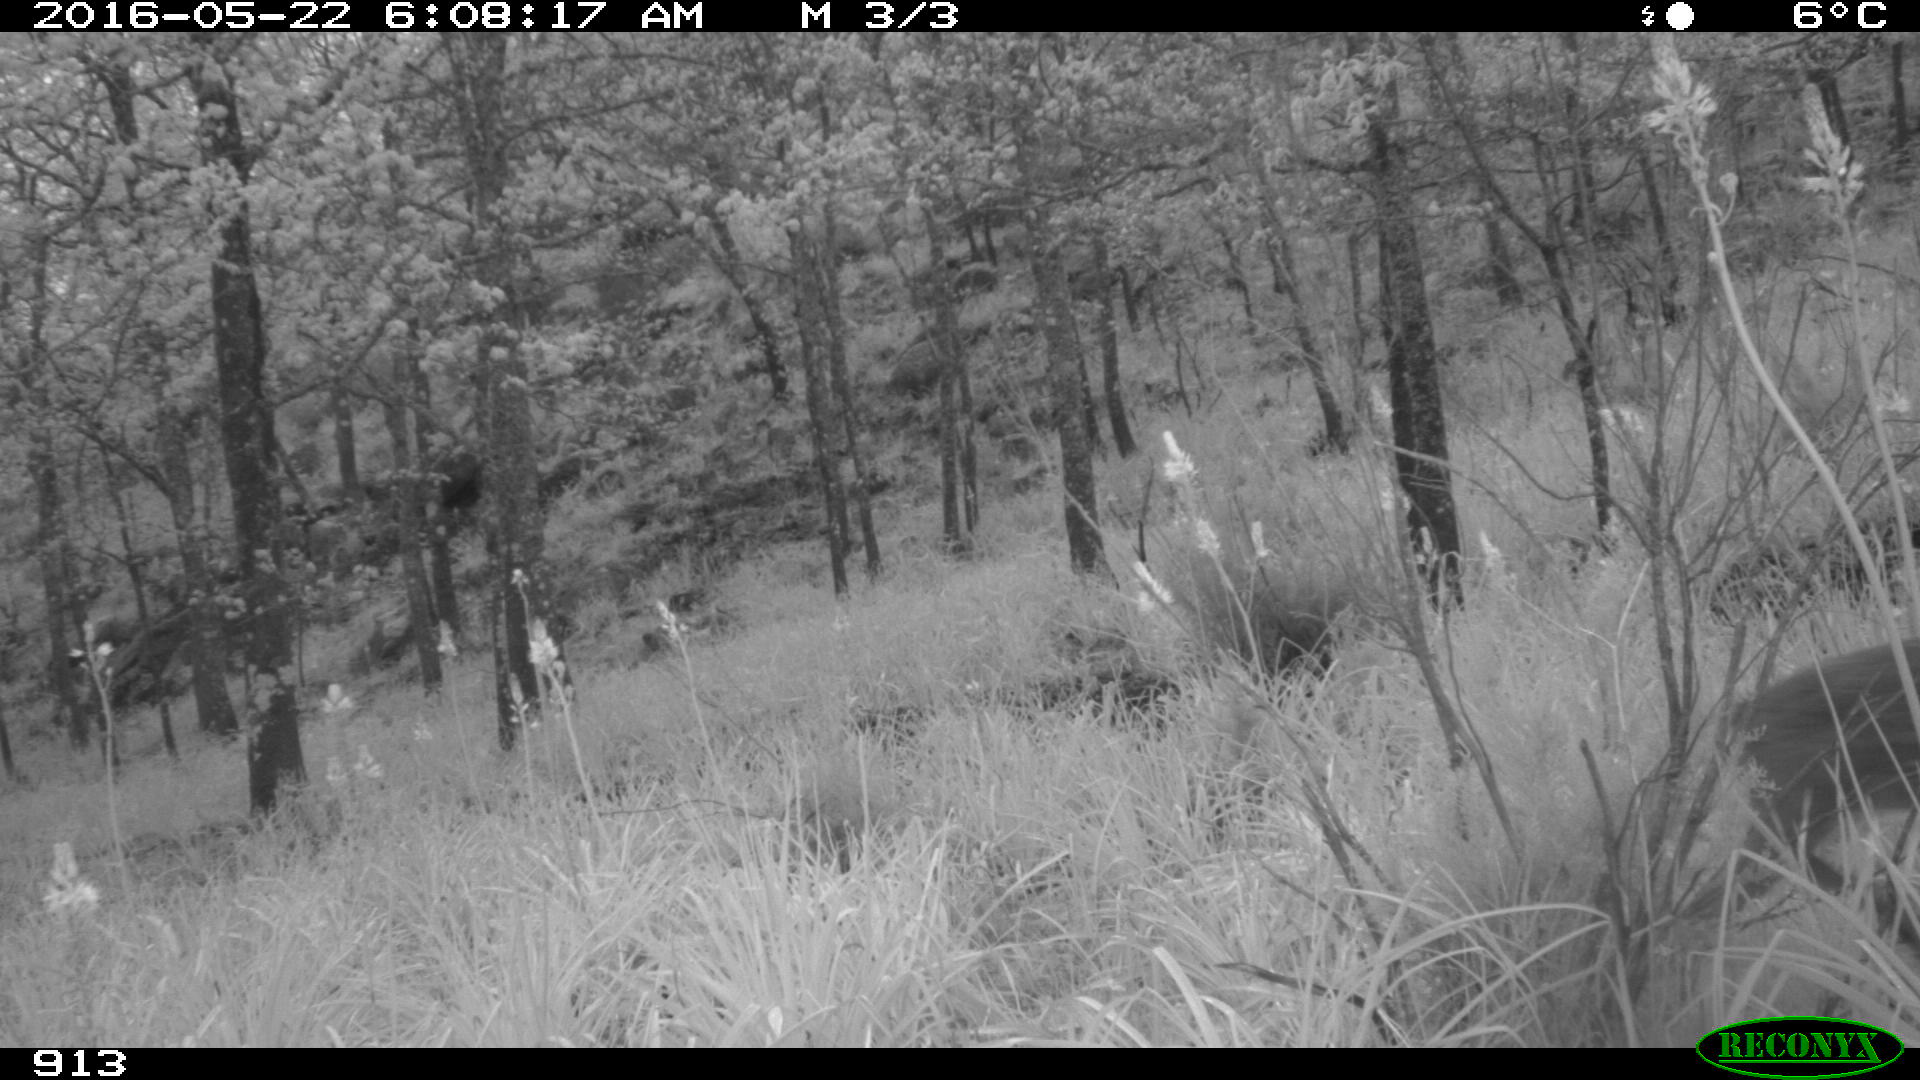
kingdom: Animalia
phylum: Chordata
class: Mammalia
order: Artiodactyla
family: Cervidae
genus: Capreolus
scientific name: Capreolus capreolus
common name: Western roe deer
